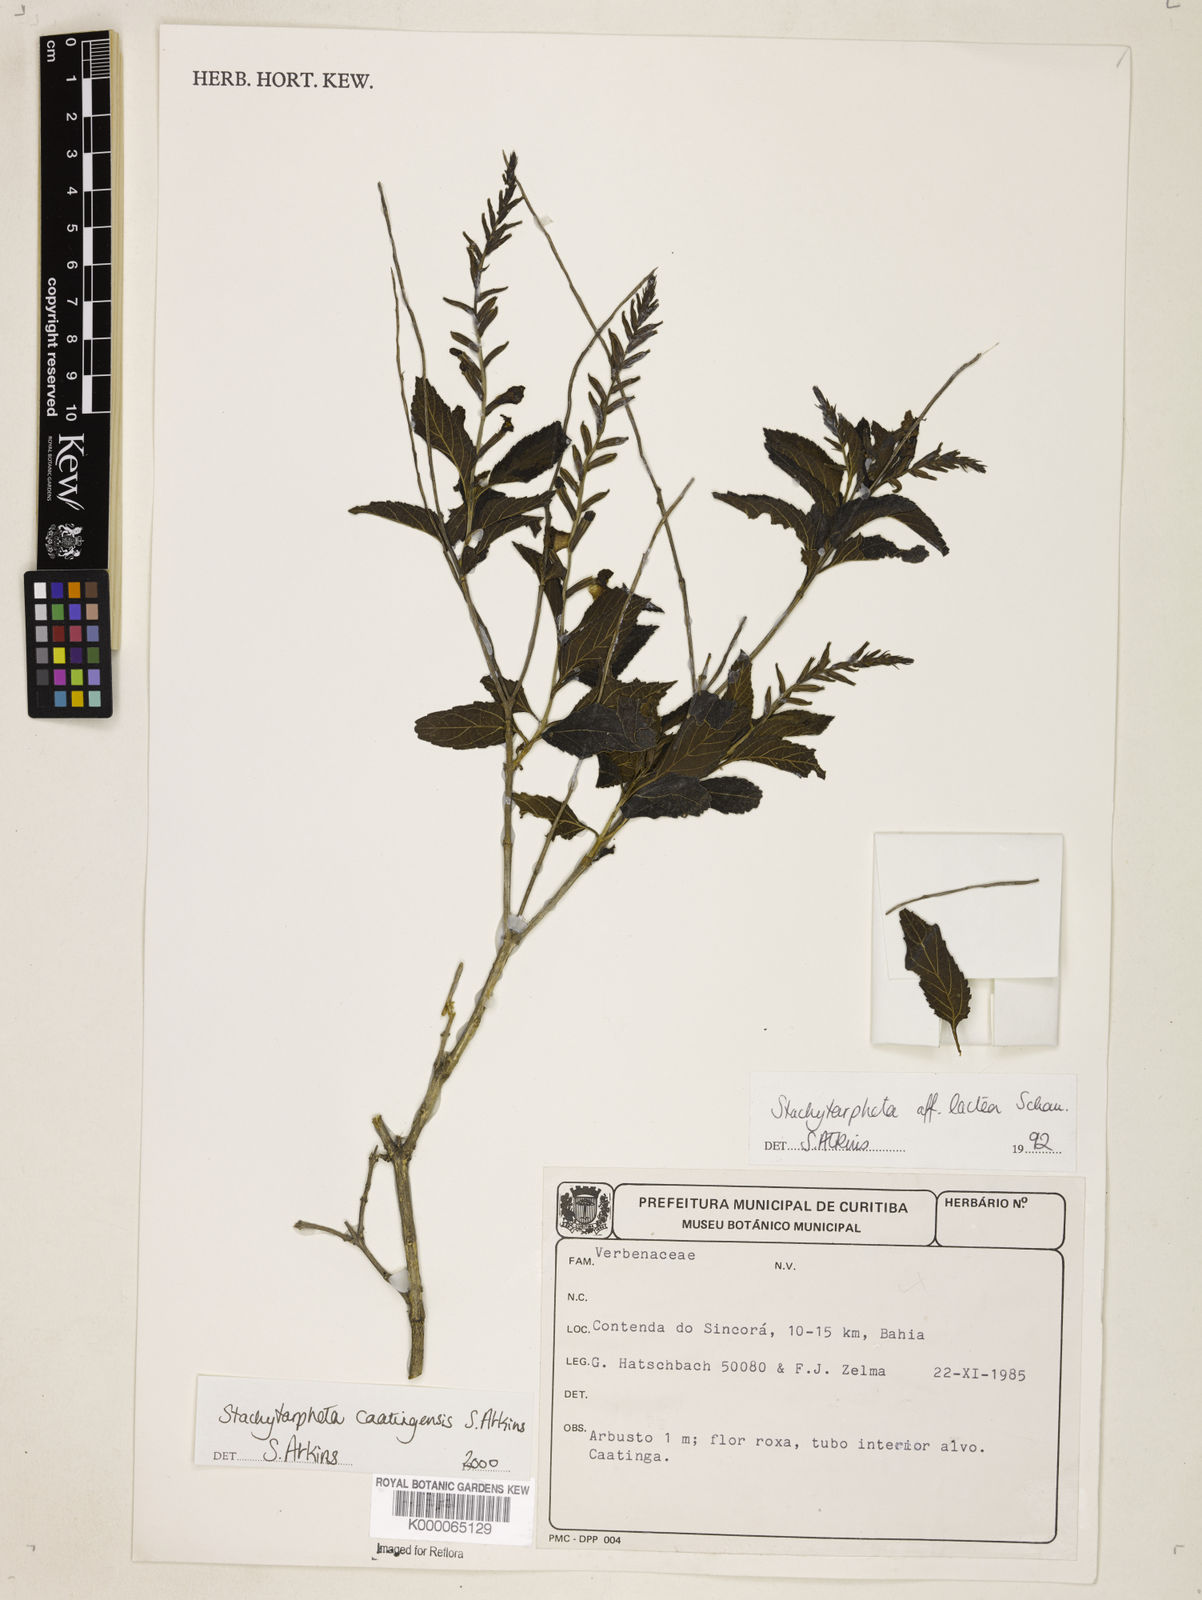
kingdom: Plantae
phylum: Tracheophyta
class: Magnoliopsida
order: Lamiales
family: Verbenaceae
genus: Stachytarpheta
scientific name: Stachytarpheta brasiliensis
